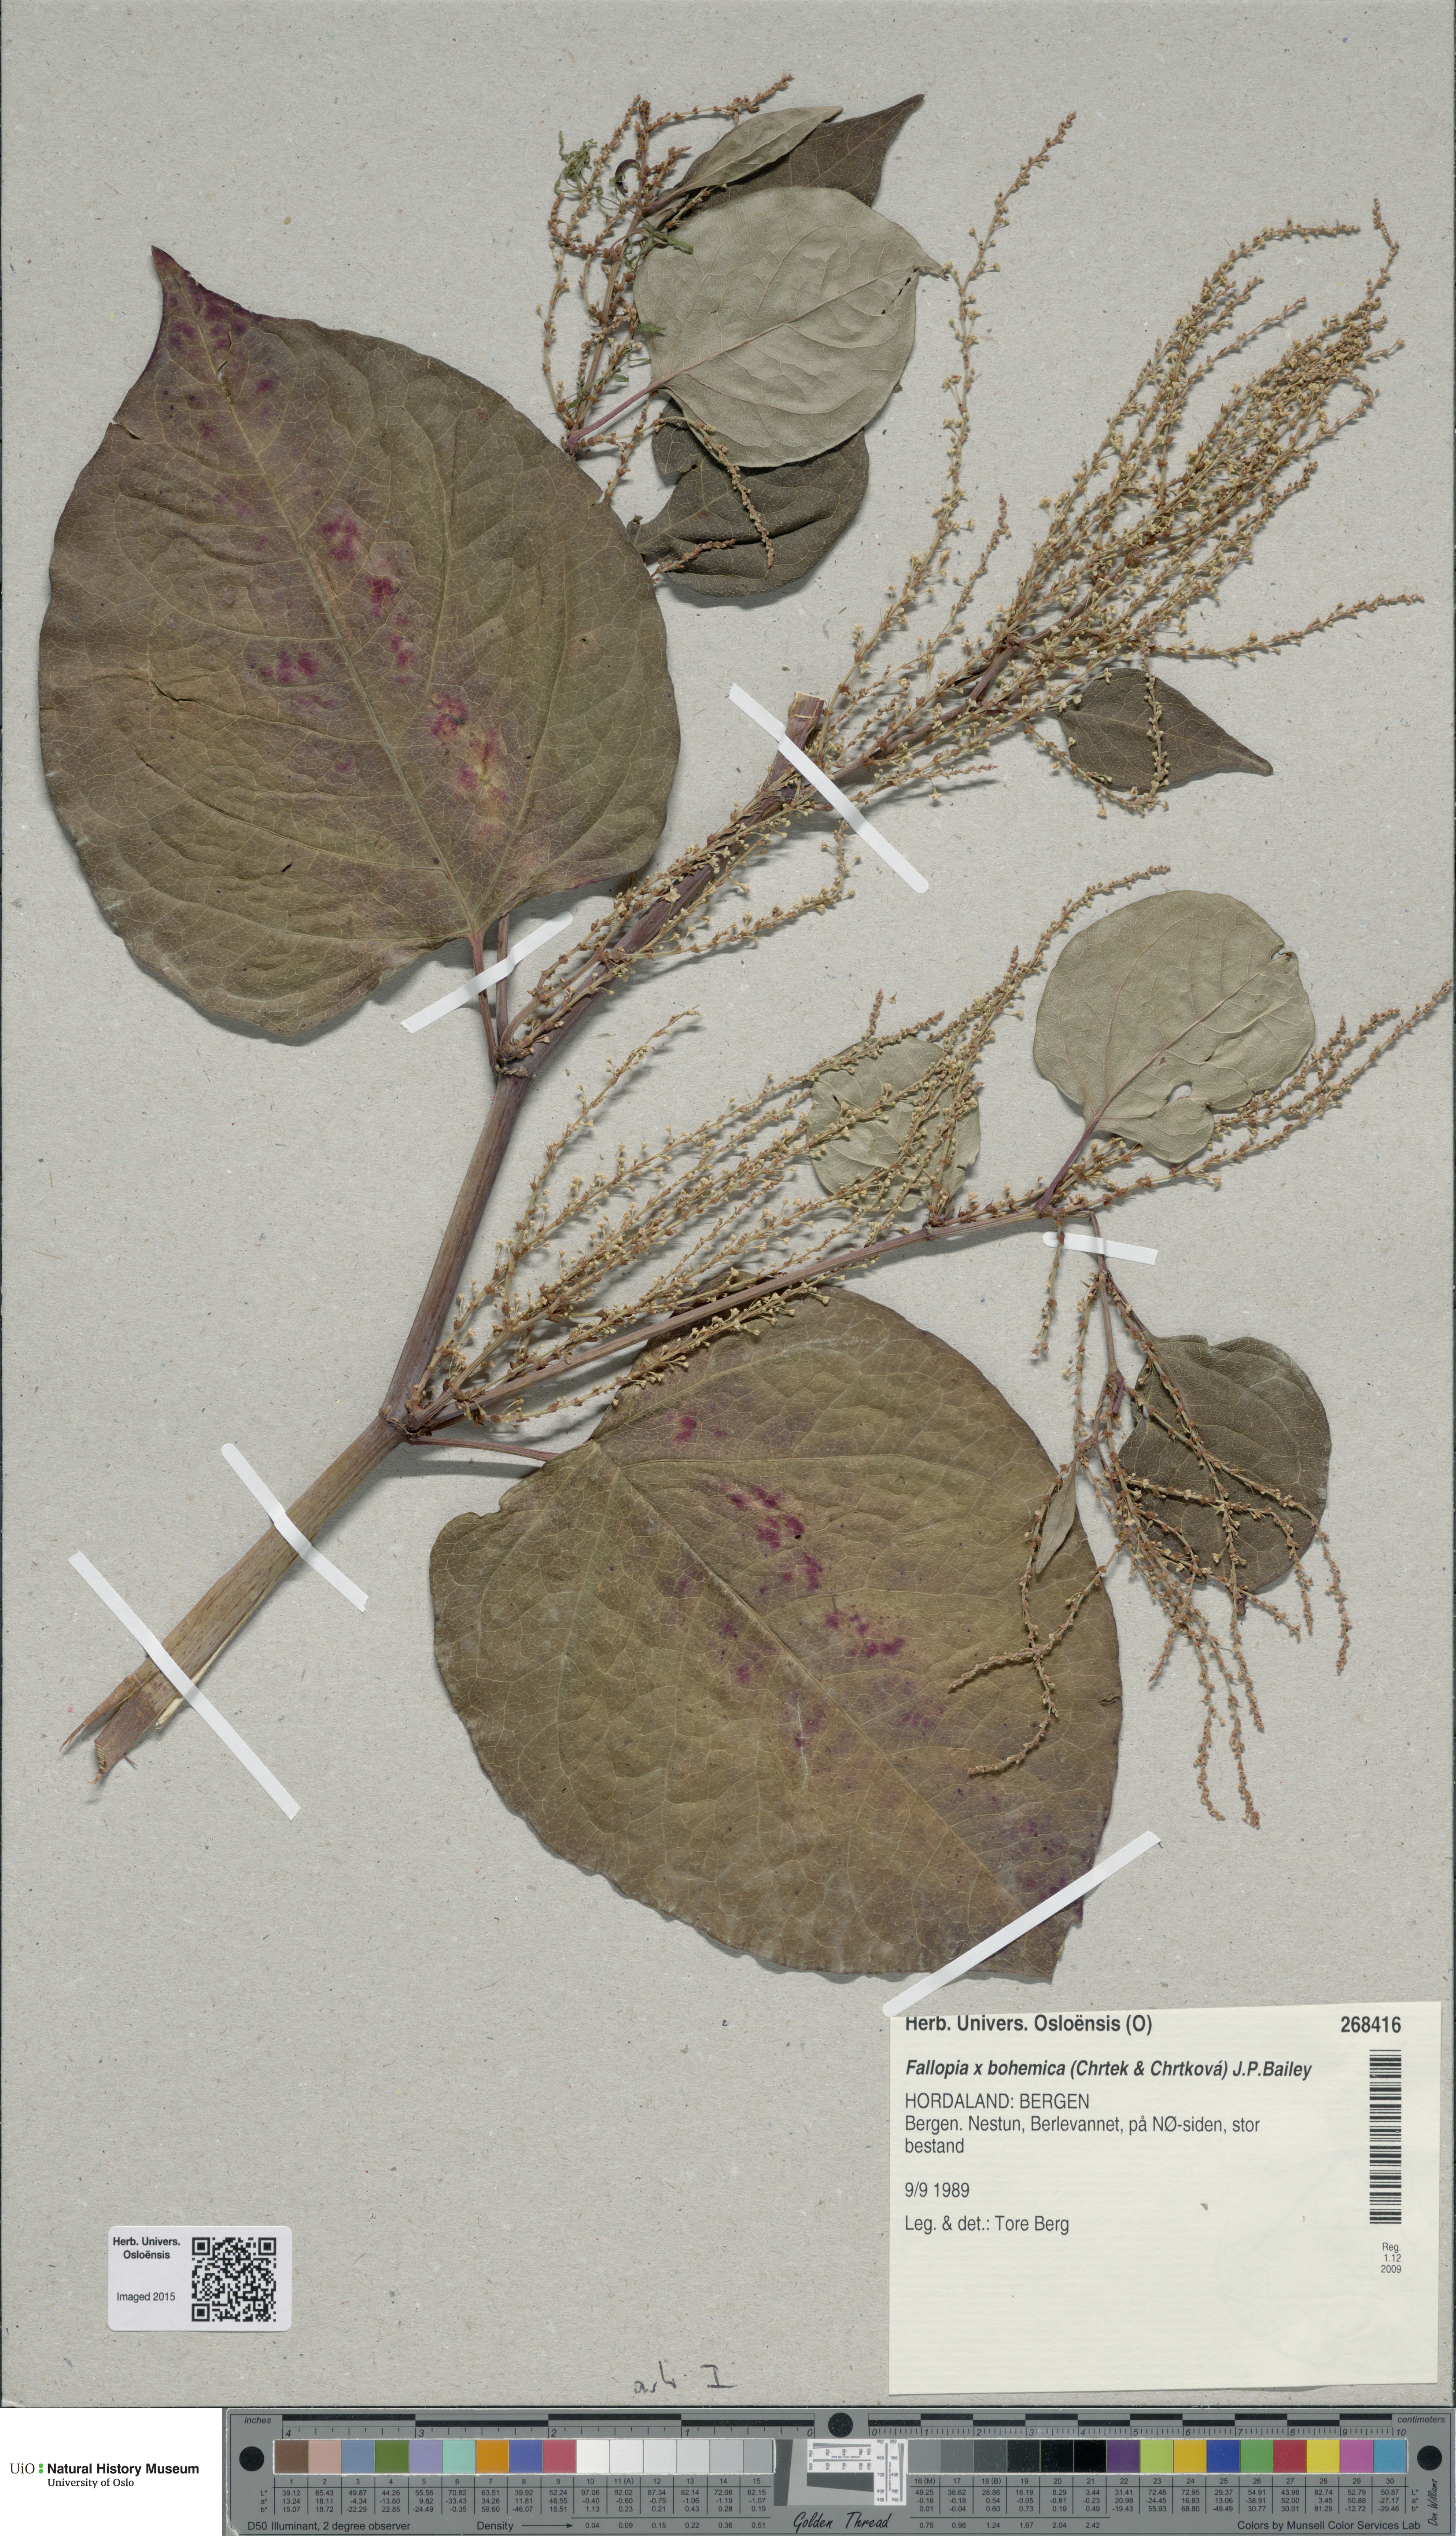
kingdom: Plantae
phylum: Tracheophyta
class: Magnoliopsida
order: Caryophyllales
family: Polygonaceae
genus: Reynoutria
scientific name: Reynoutria bohemica
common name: Bohemian knotweed
